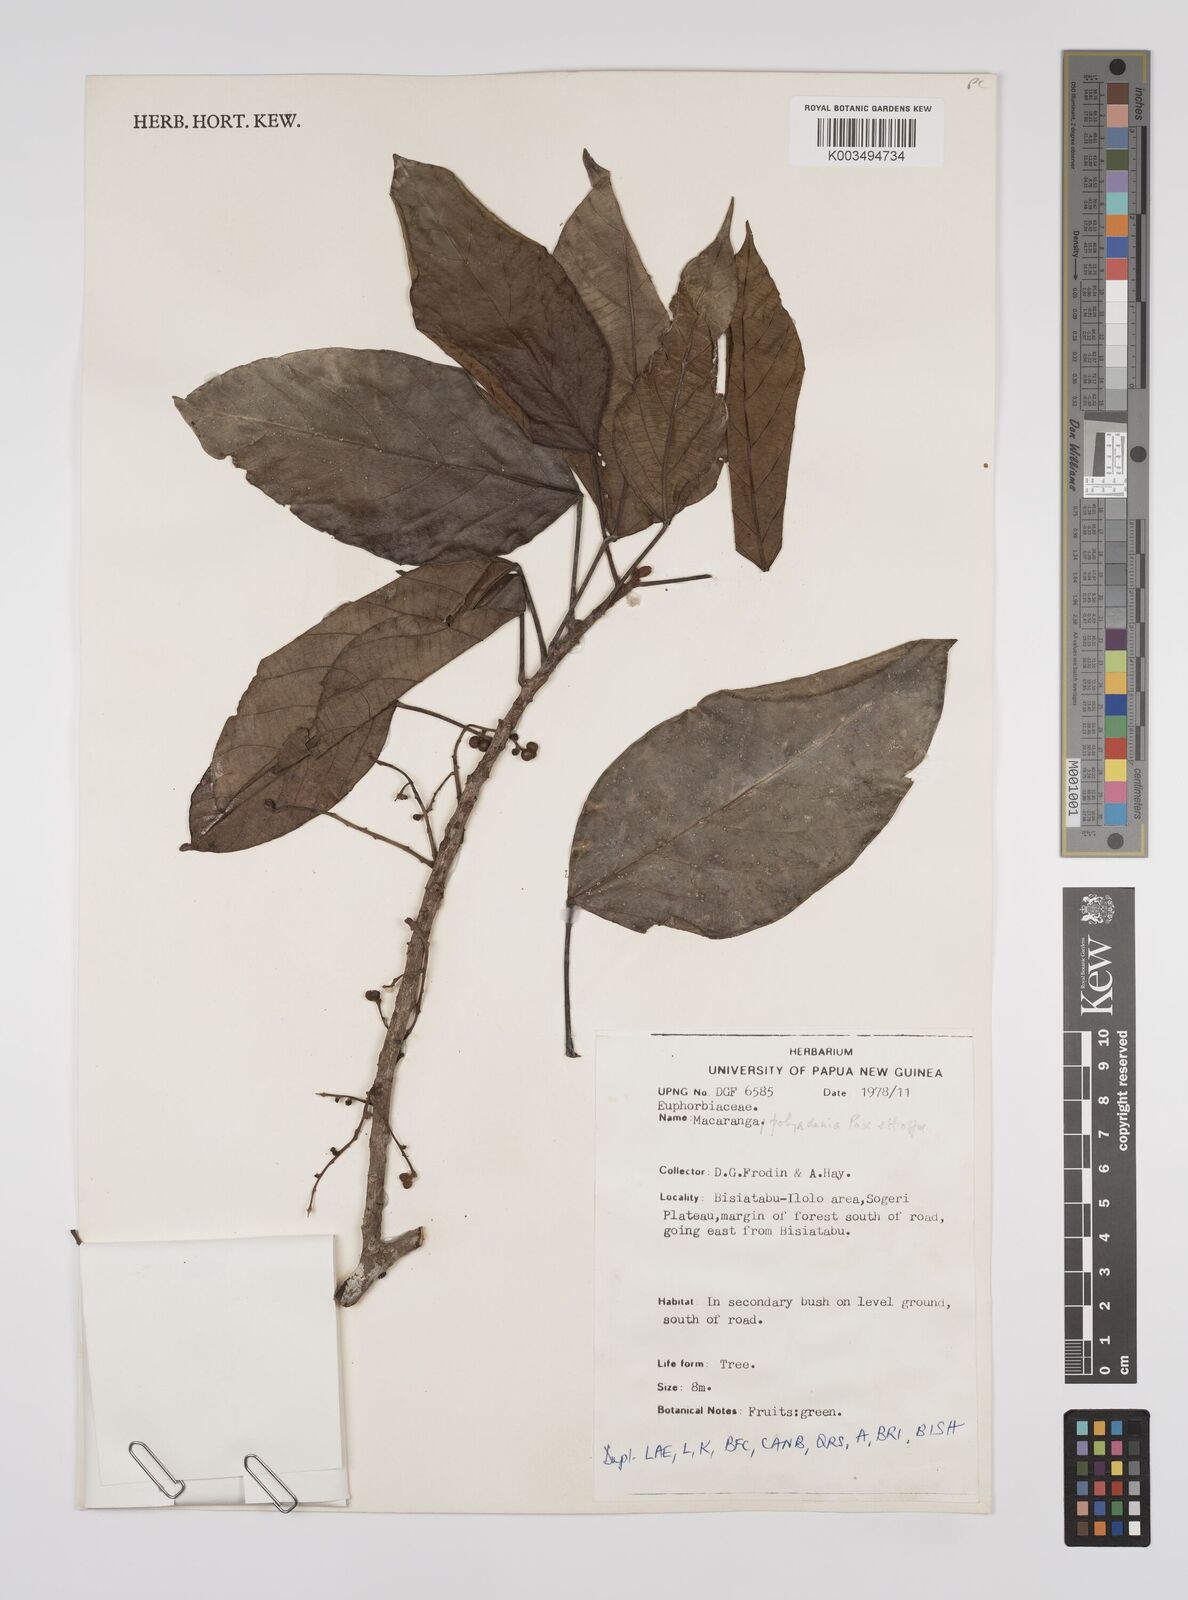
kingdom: Plantae
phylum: Tracheophyta
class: Magnoliopsida
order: Malpighiales
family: Euphorbiaceae
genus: Macaranga
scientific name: Macaranga polyadenia
